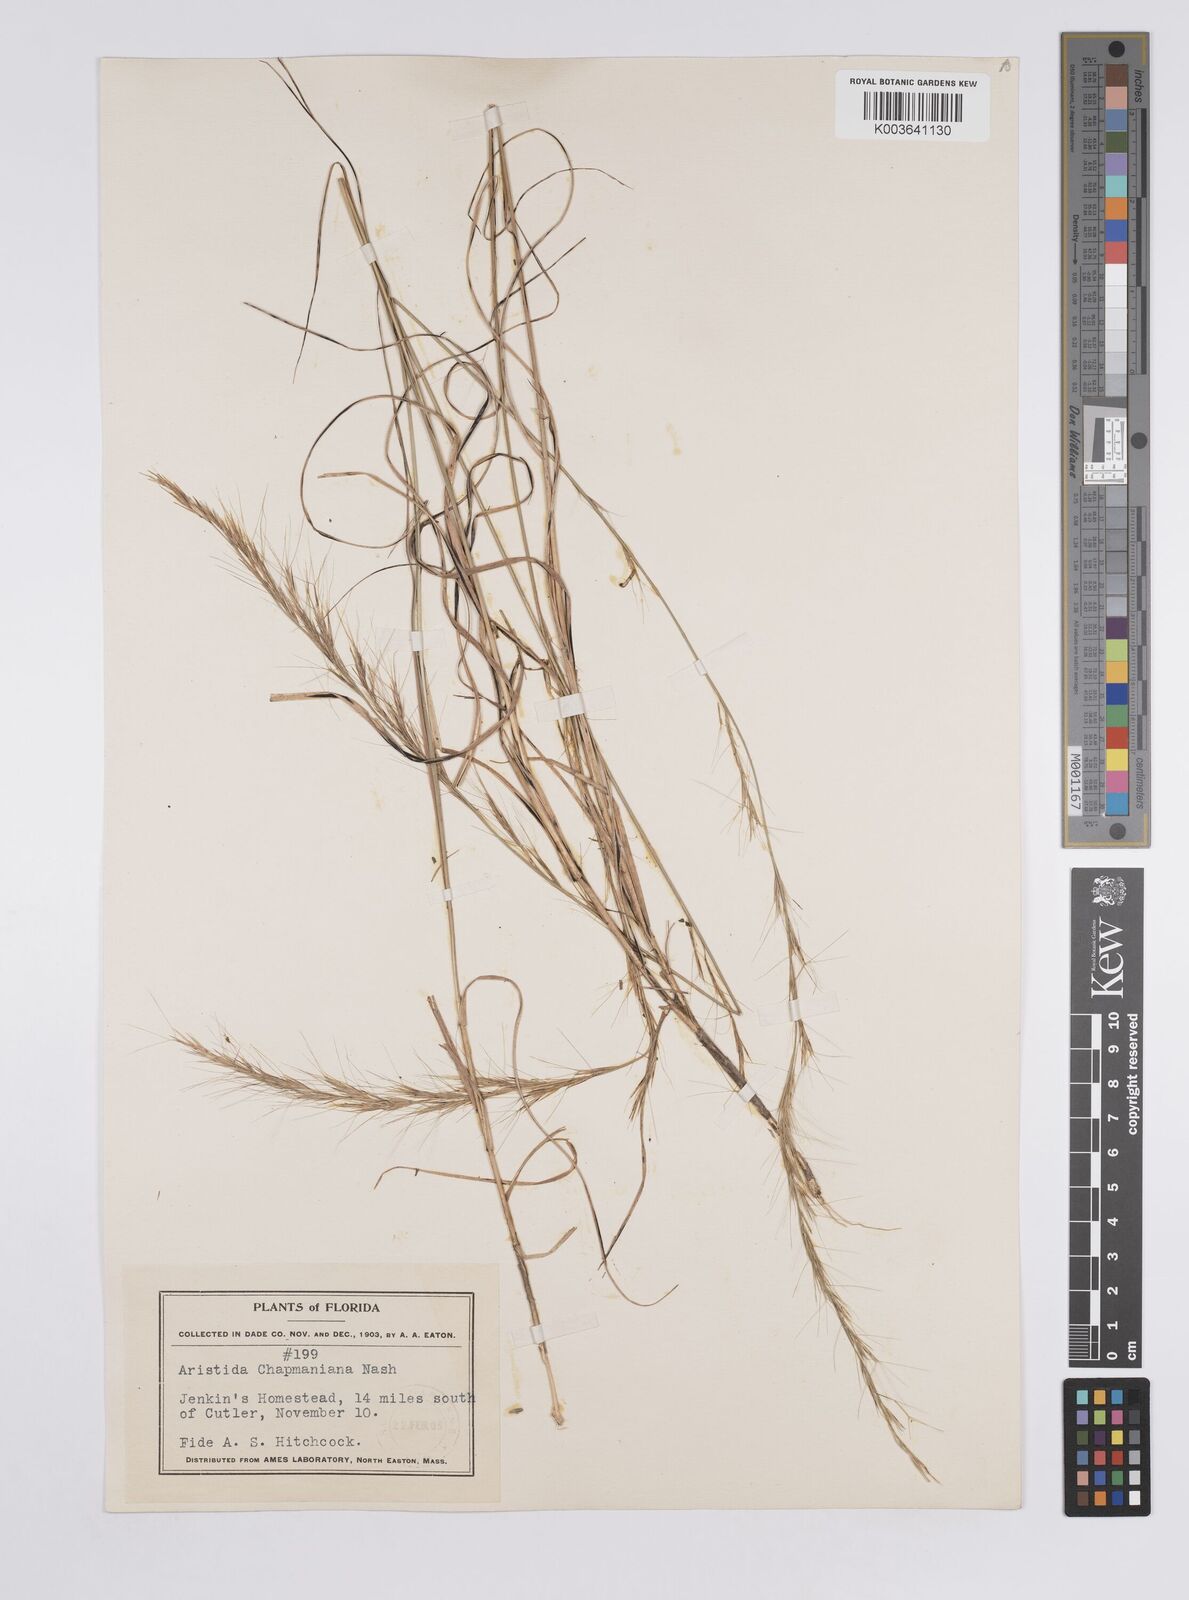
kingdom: Plantae
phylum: Tracheophyta
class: Liliopsida
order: Poales
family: Poaceae
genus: Aristida
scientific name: Aristida palustris
